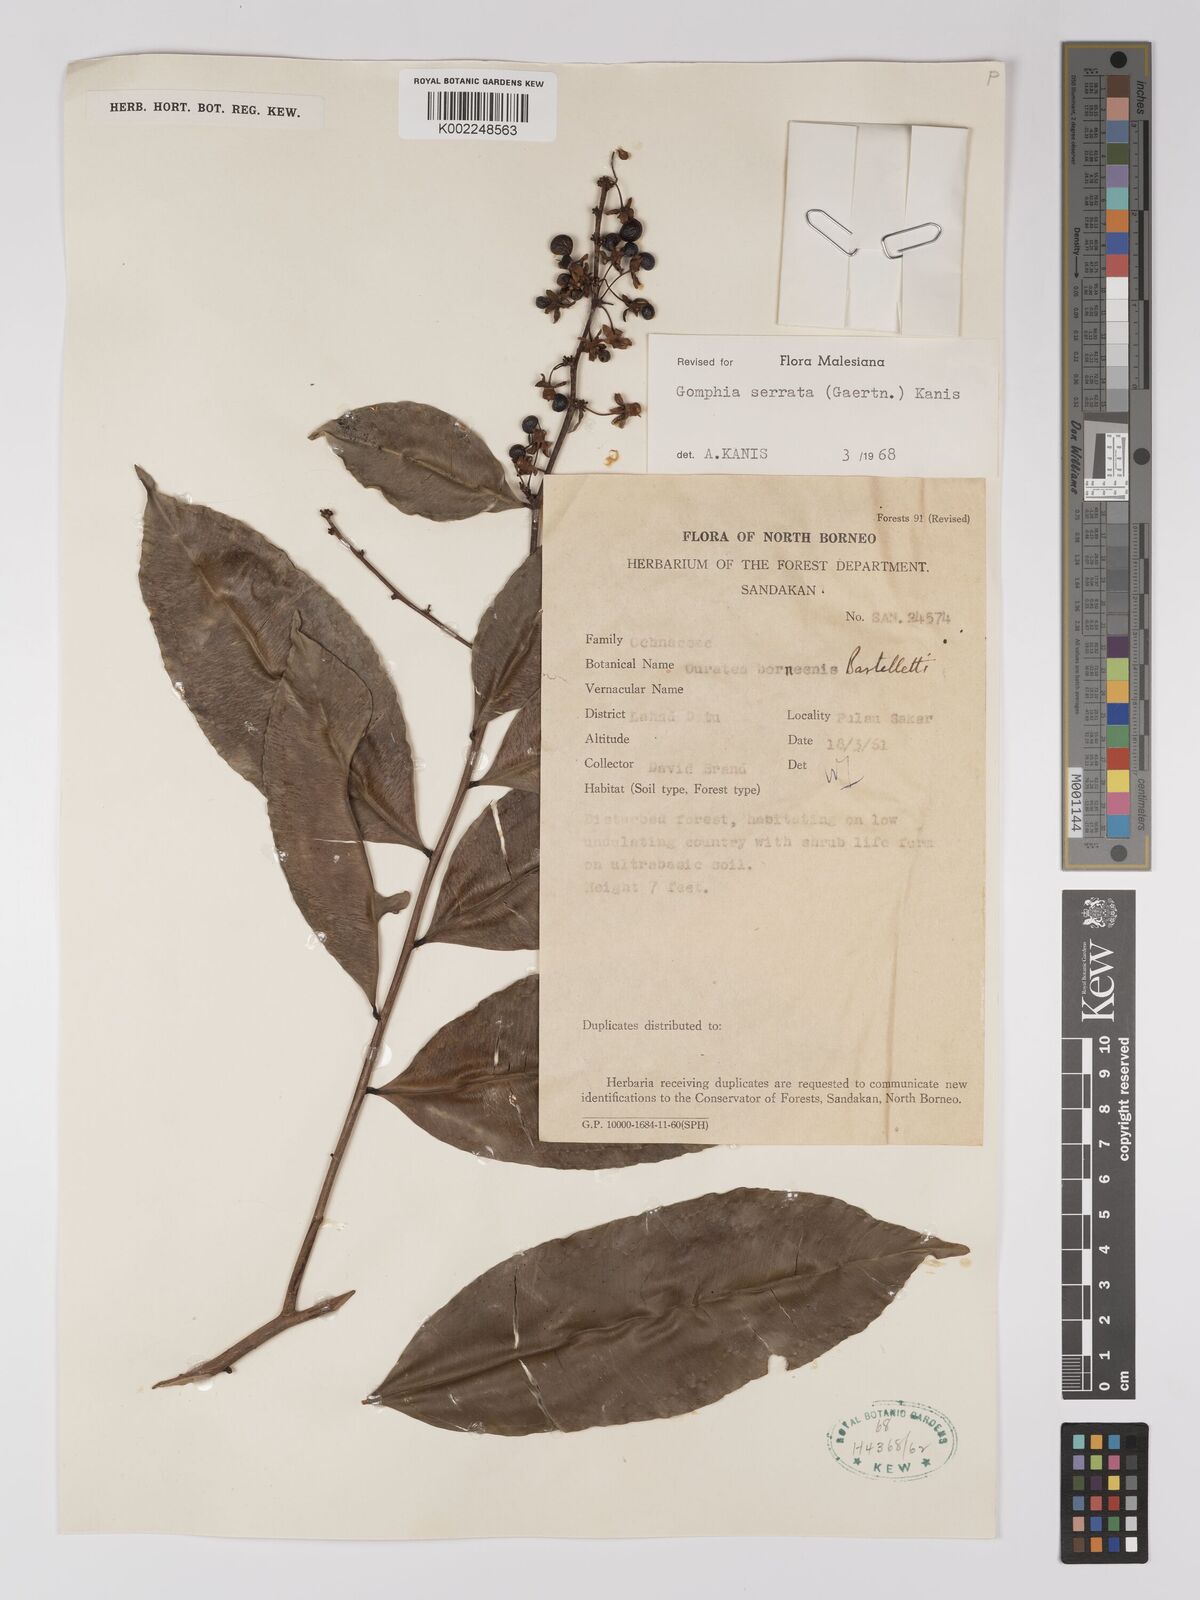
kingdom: Plantae
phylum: Tracheophyta
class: Magnoliopsida
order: Malpighiales
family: Ochnaceae
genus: Gomphia
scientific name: Gomphia serrata
